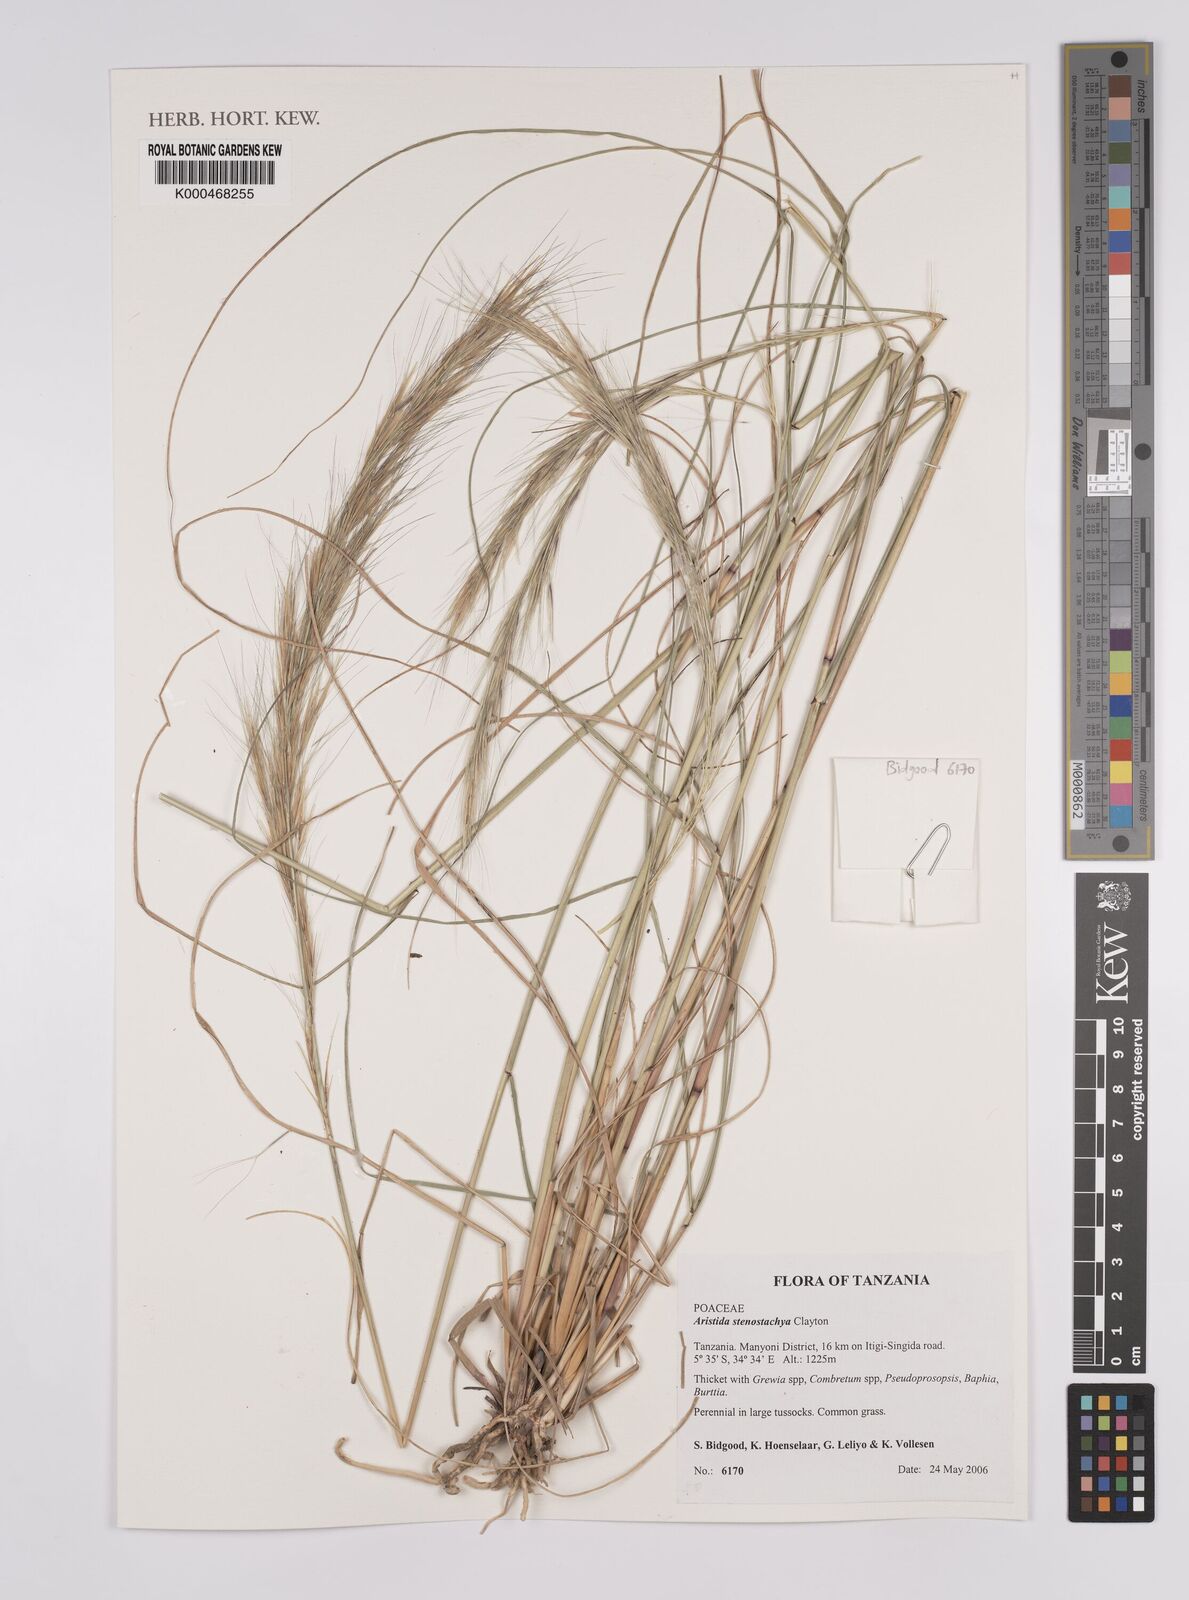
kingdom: Plantae
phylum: Tracheophyta
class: Liliopsida
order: Poales
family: Poaceae
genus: Aristida
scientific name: Aristida stenostachya
